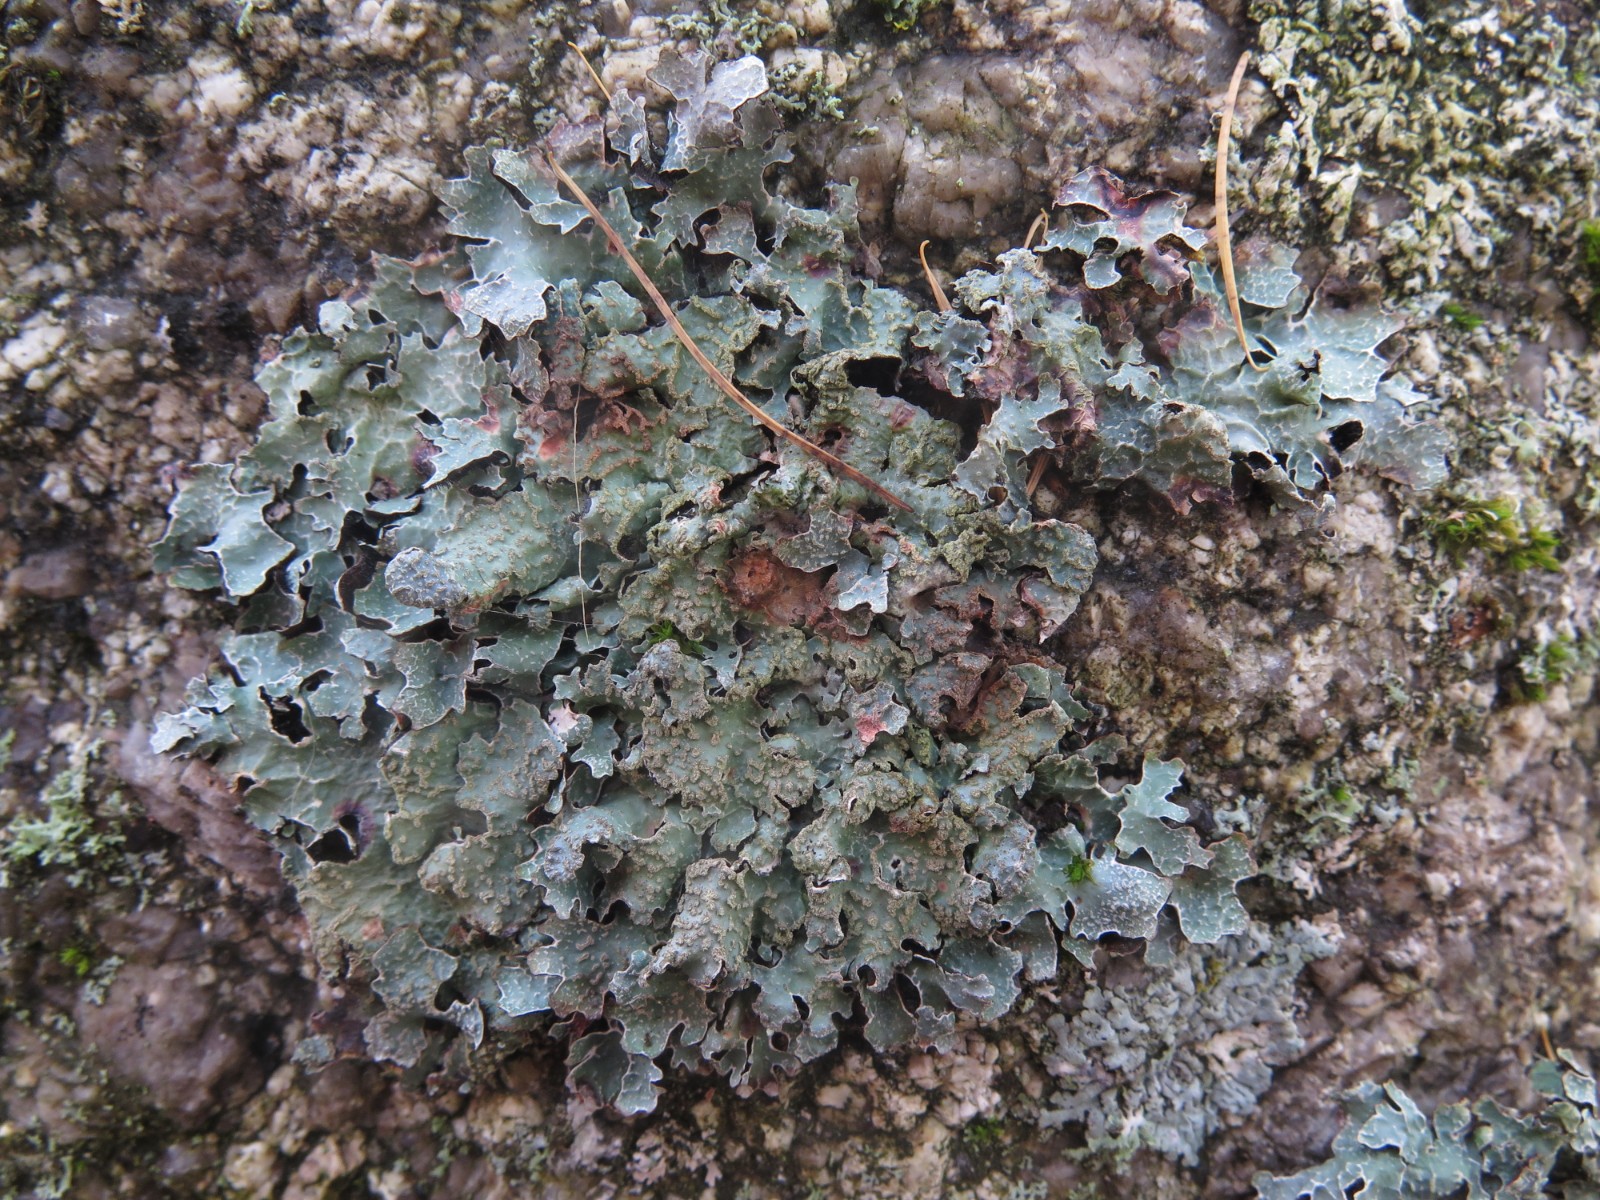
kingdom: Fungi
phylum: Ascomycota
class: Lecanoromycetes
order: Lecanorales
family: Parmeliaceae
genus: Parmelia
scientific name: Parmelia sulcata
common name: rynket skållav
